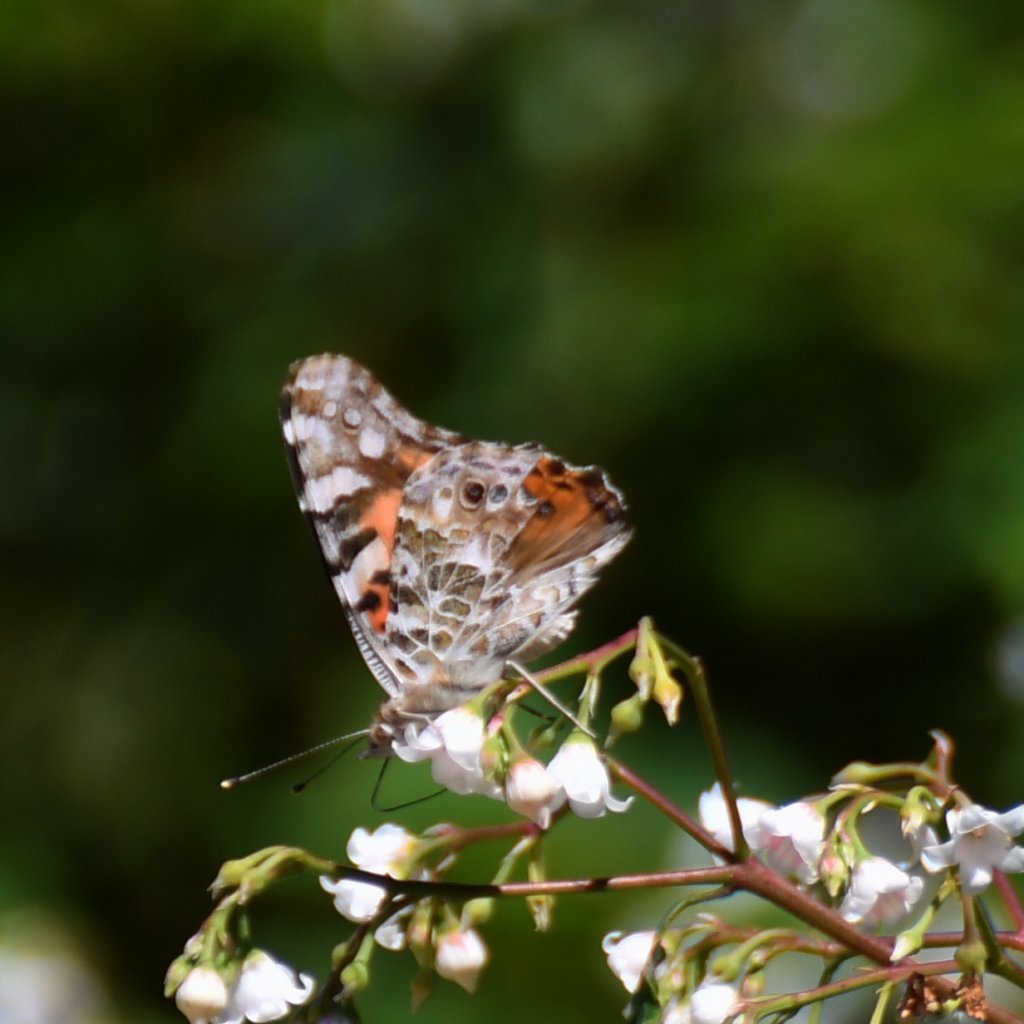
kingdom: Animalia
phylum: Arthropoda
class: Insecta
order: Lepidoptera
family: Nymphalidae
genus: Vanessa
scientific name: Vanessa cardui
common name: Painted Lady
